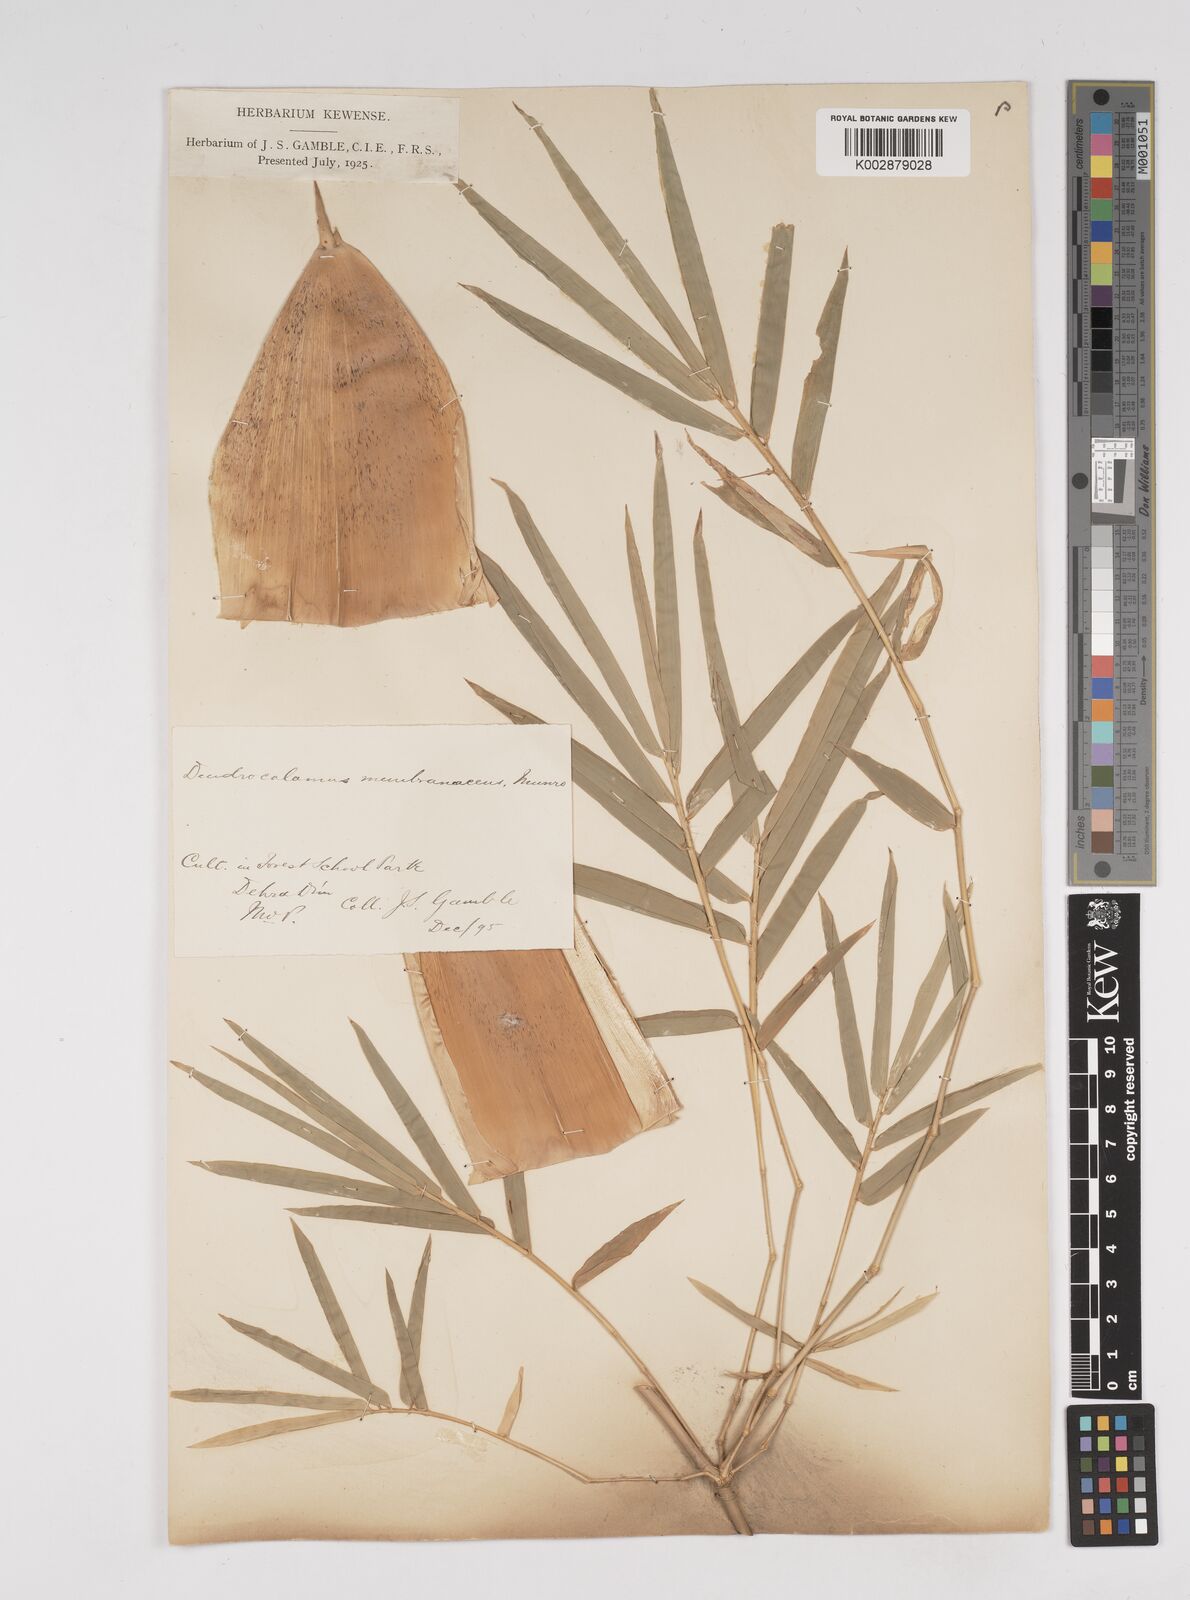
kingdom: Plantae
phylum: Tracheophyta
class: Liliopsida
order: Poales
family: Poaceae
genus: Dendrocalamus
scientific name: Dendrocalamus membranaceus
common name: White bamboo
